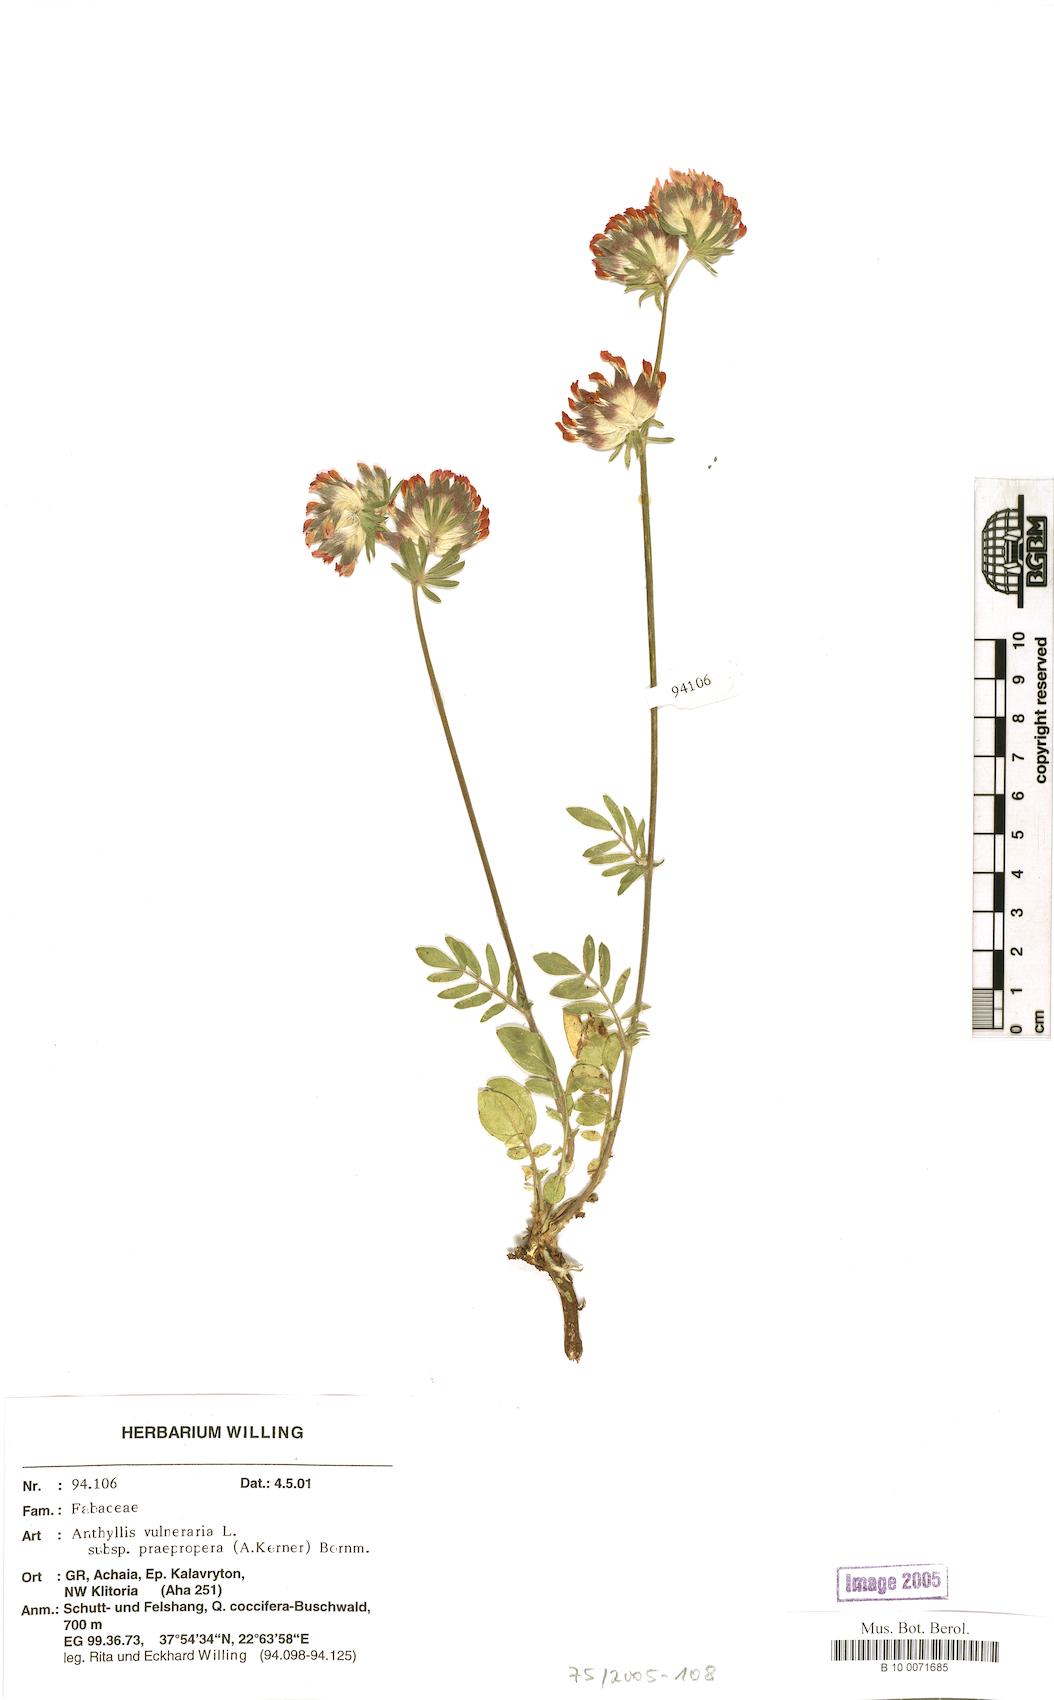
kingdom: Plantae
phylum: Tracheophyta
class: Magnoliopsida
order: Fabales
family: Fabaceae
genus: Anthyllis
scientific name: Anthyllis vulneraria
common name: Kidney vetch
